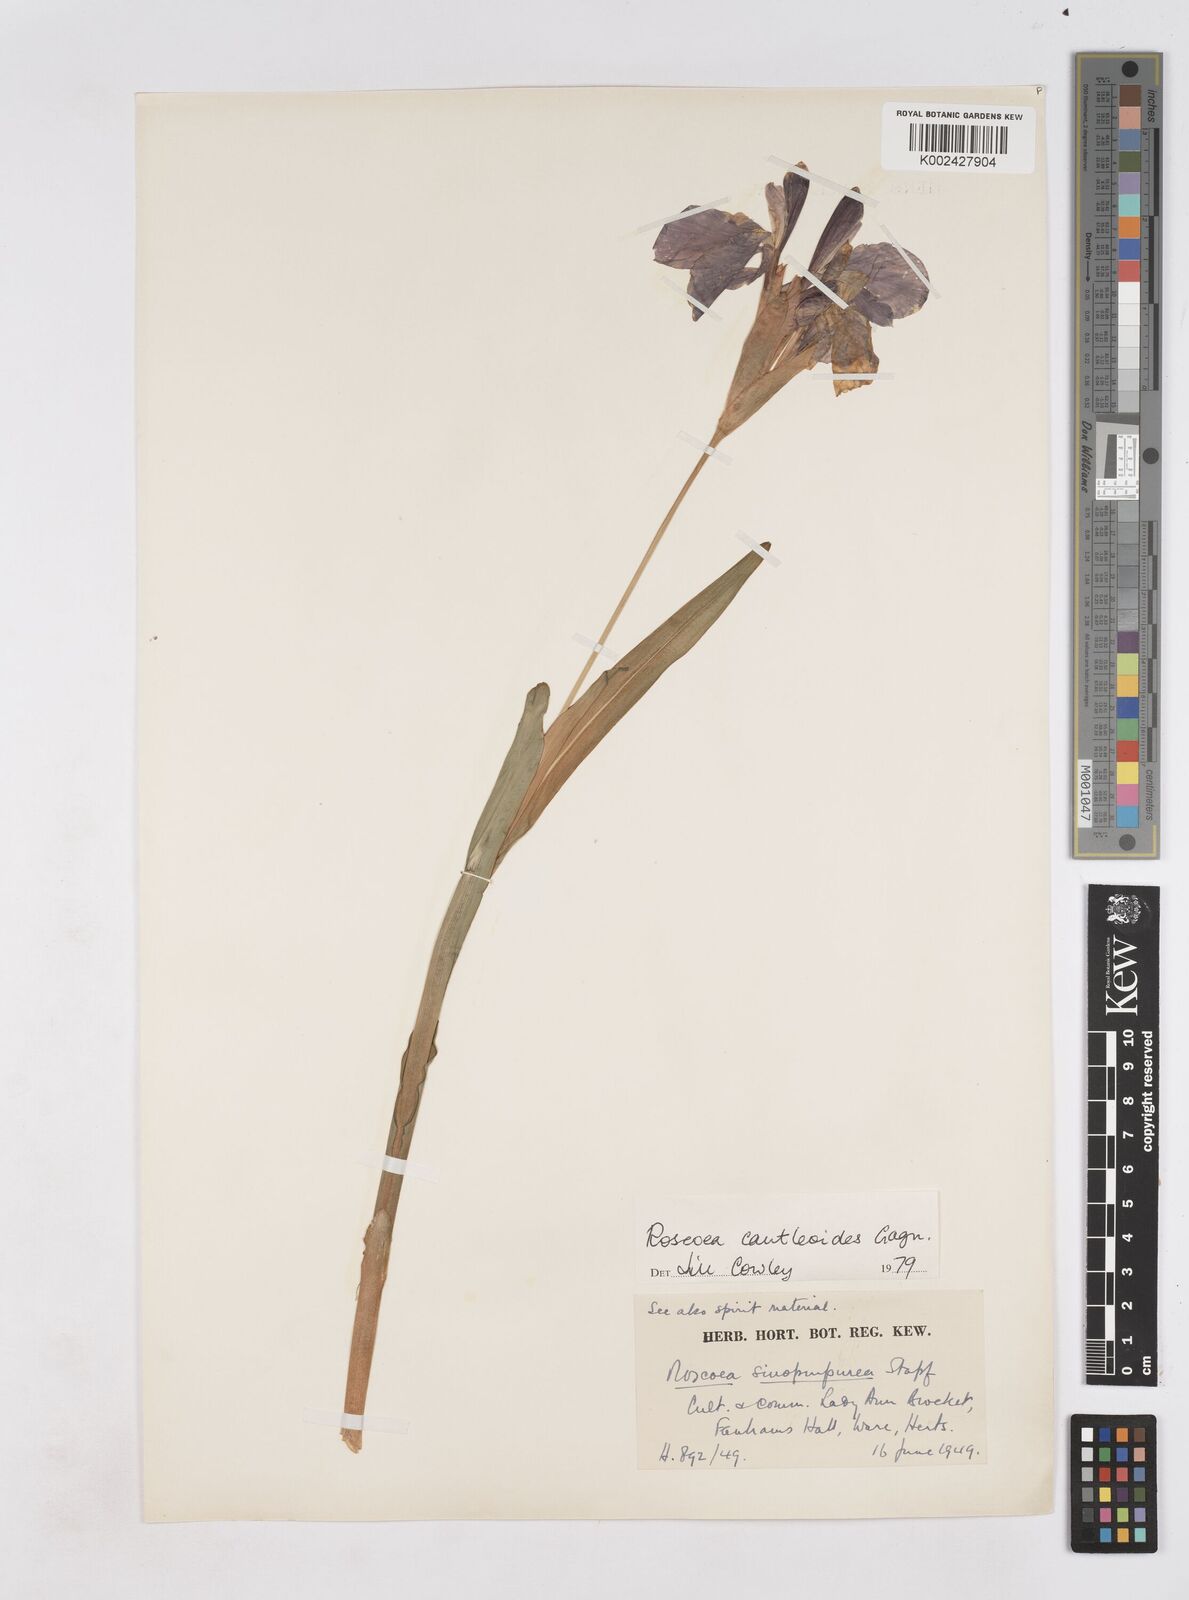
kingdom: Plantae
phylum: Tracheophyta
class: Liliopsida
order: Zingiberales
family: Zingiberaceae
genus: Roscoea
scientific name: Roscoea cautleyoides
